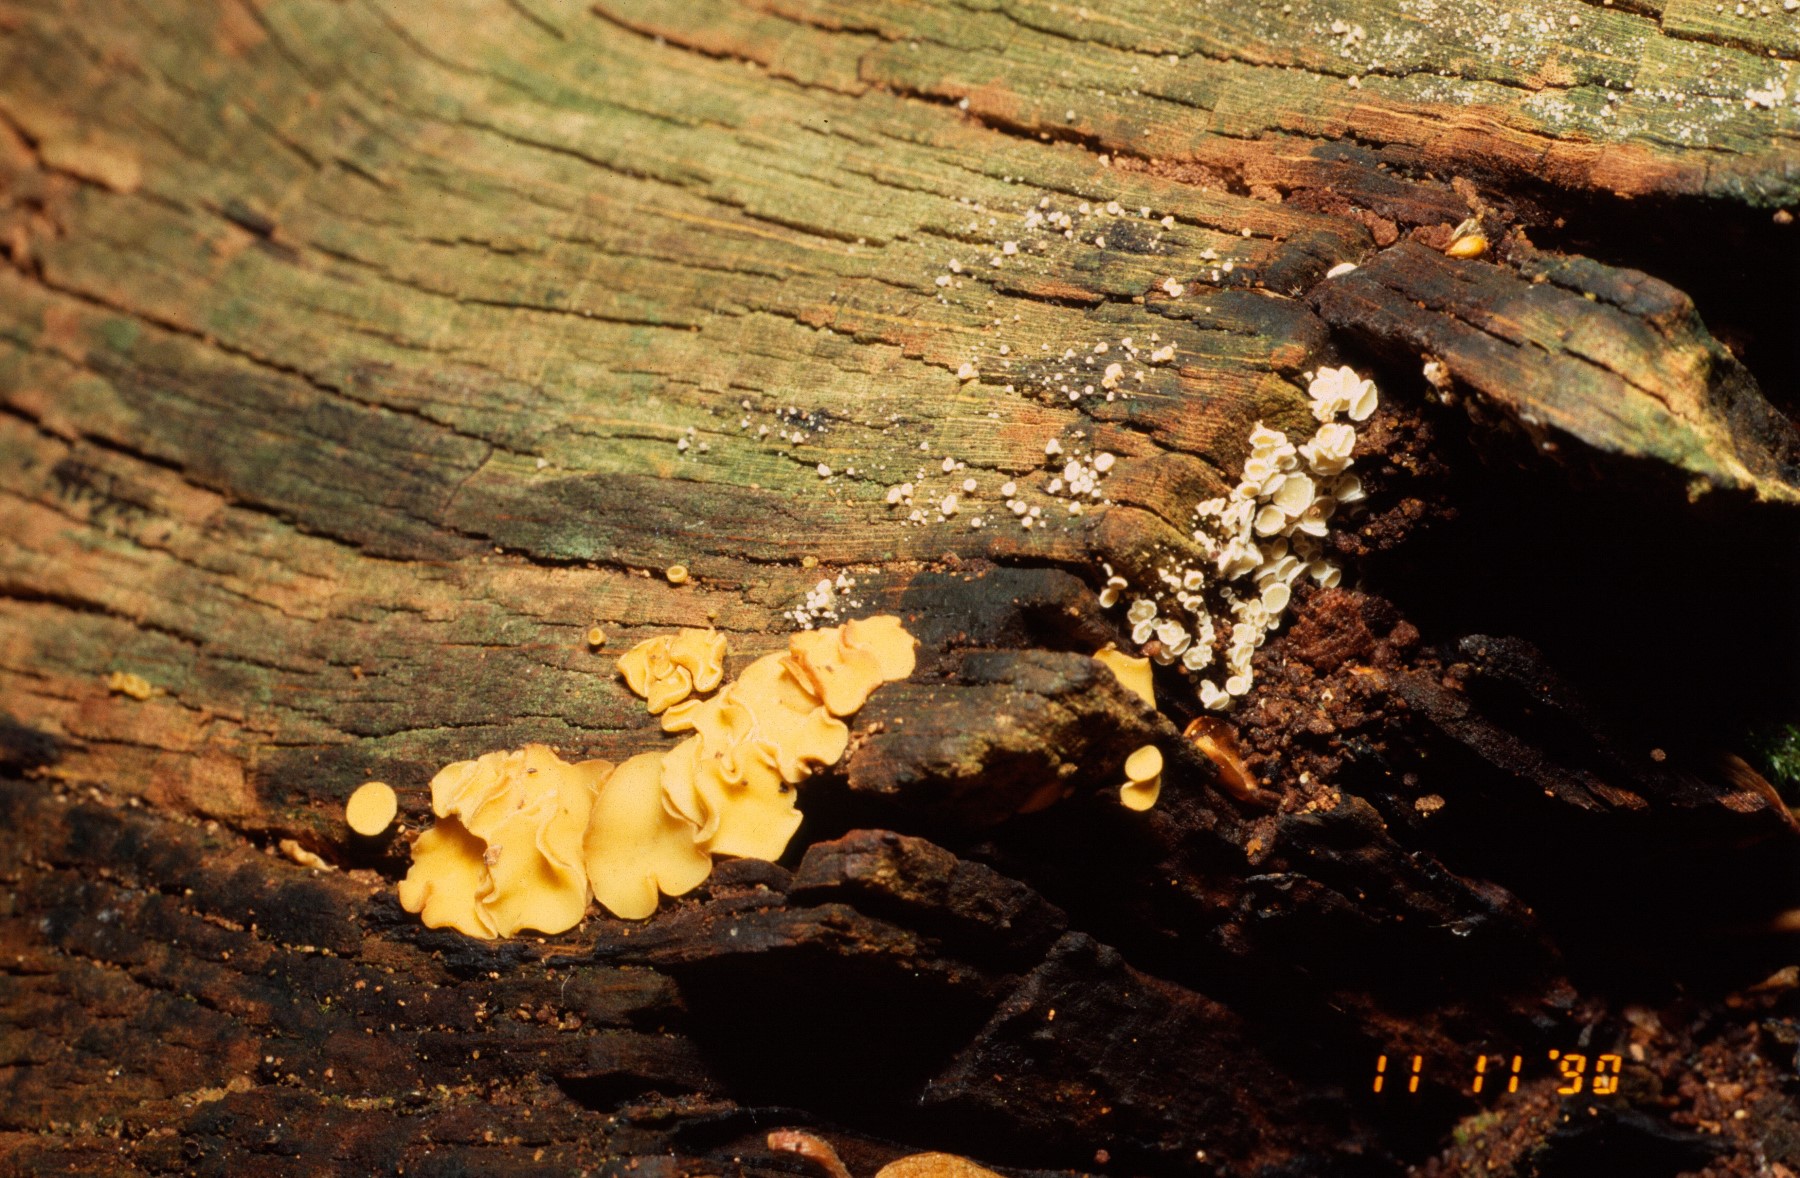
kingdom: Fungi
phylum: Ascomycota
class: Leotiomycetes
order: Helotiales
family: Helotiaceae
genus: Hymenoscyphus
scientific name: Hymenoscyphus
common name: stilkskive
